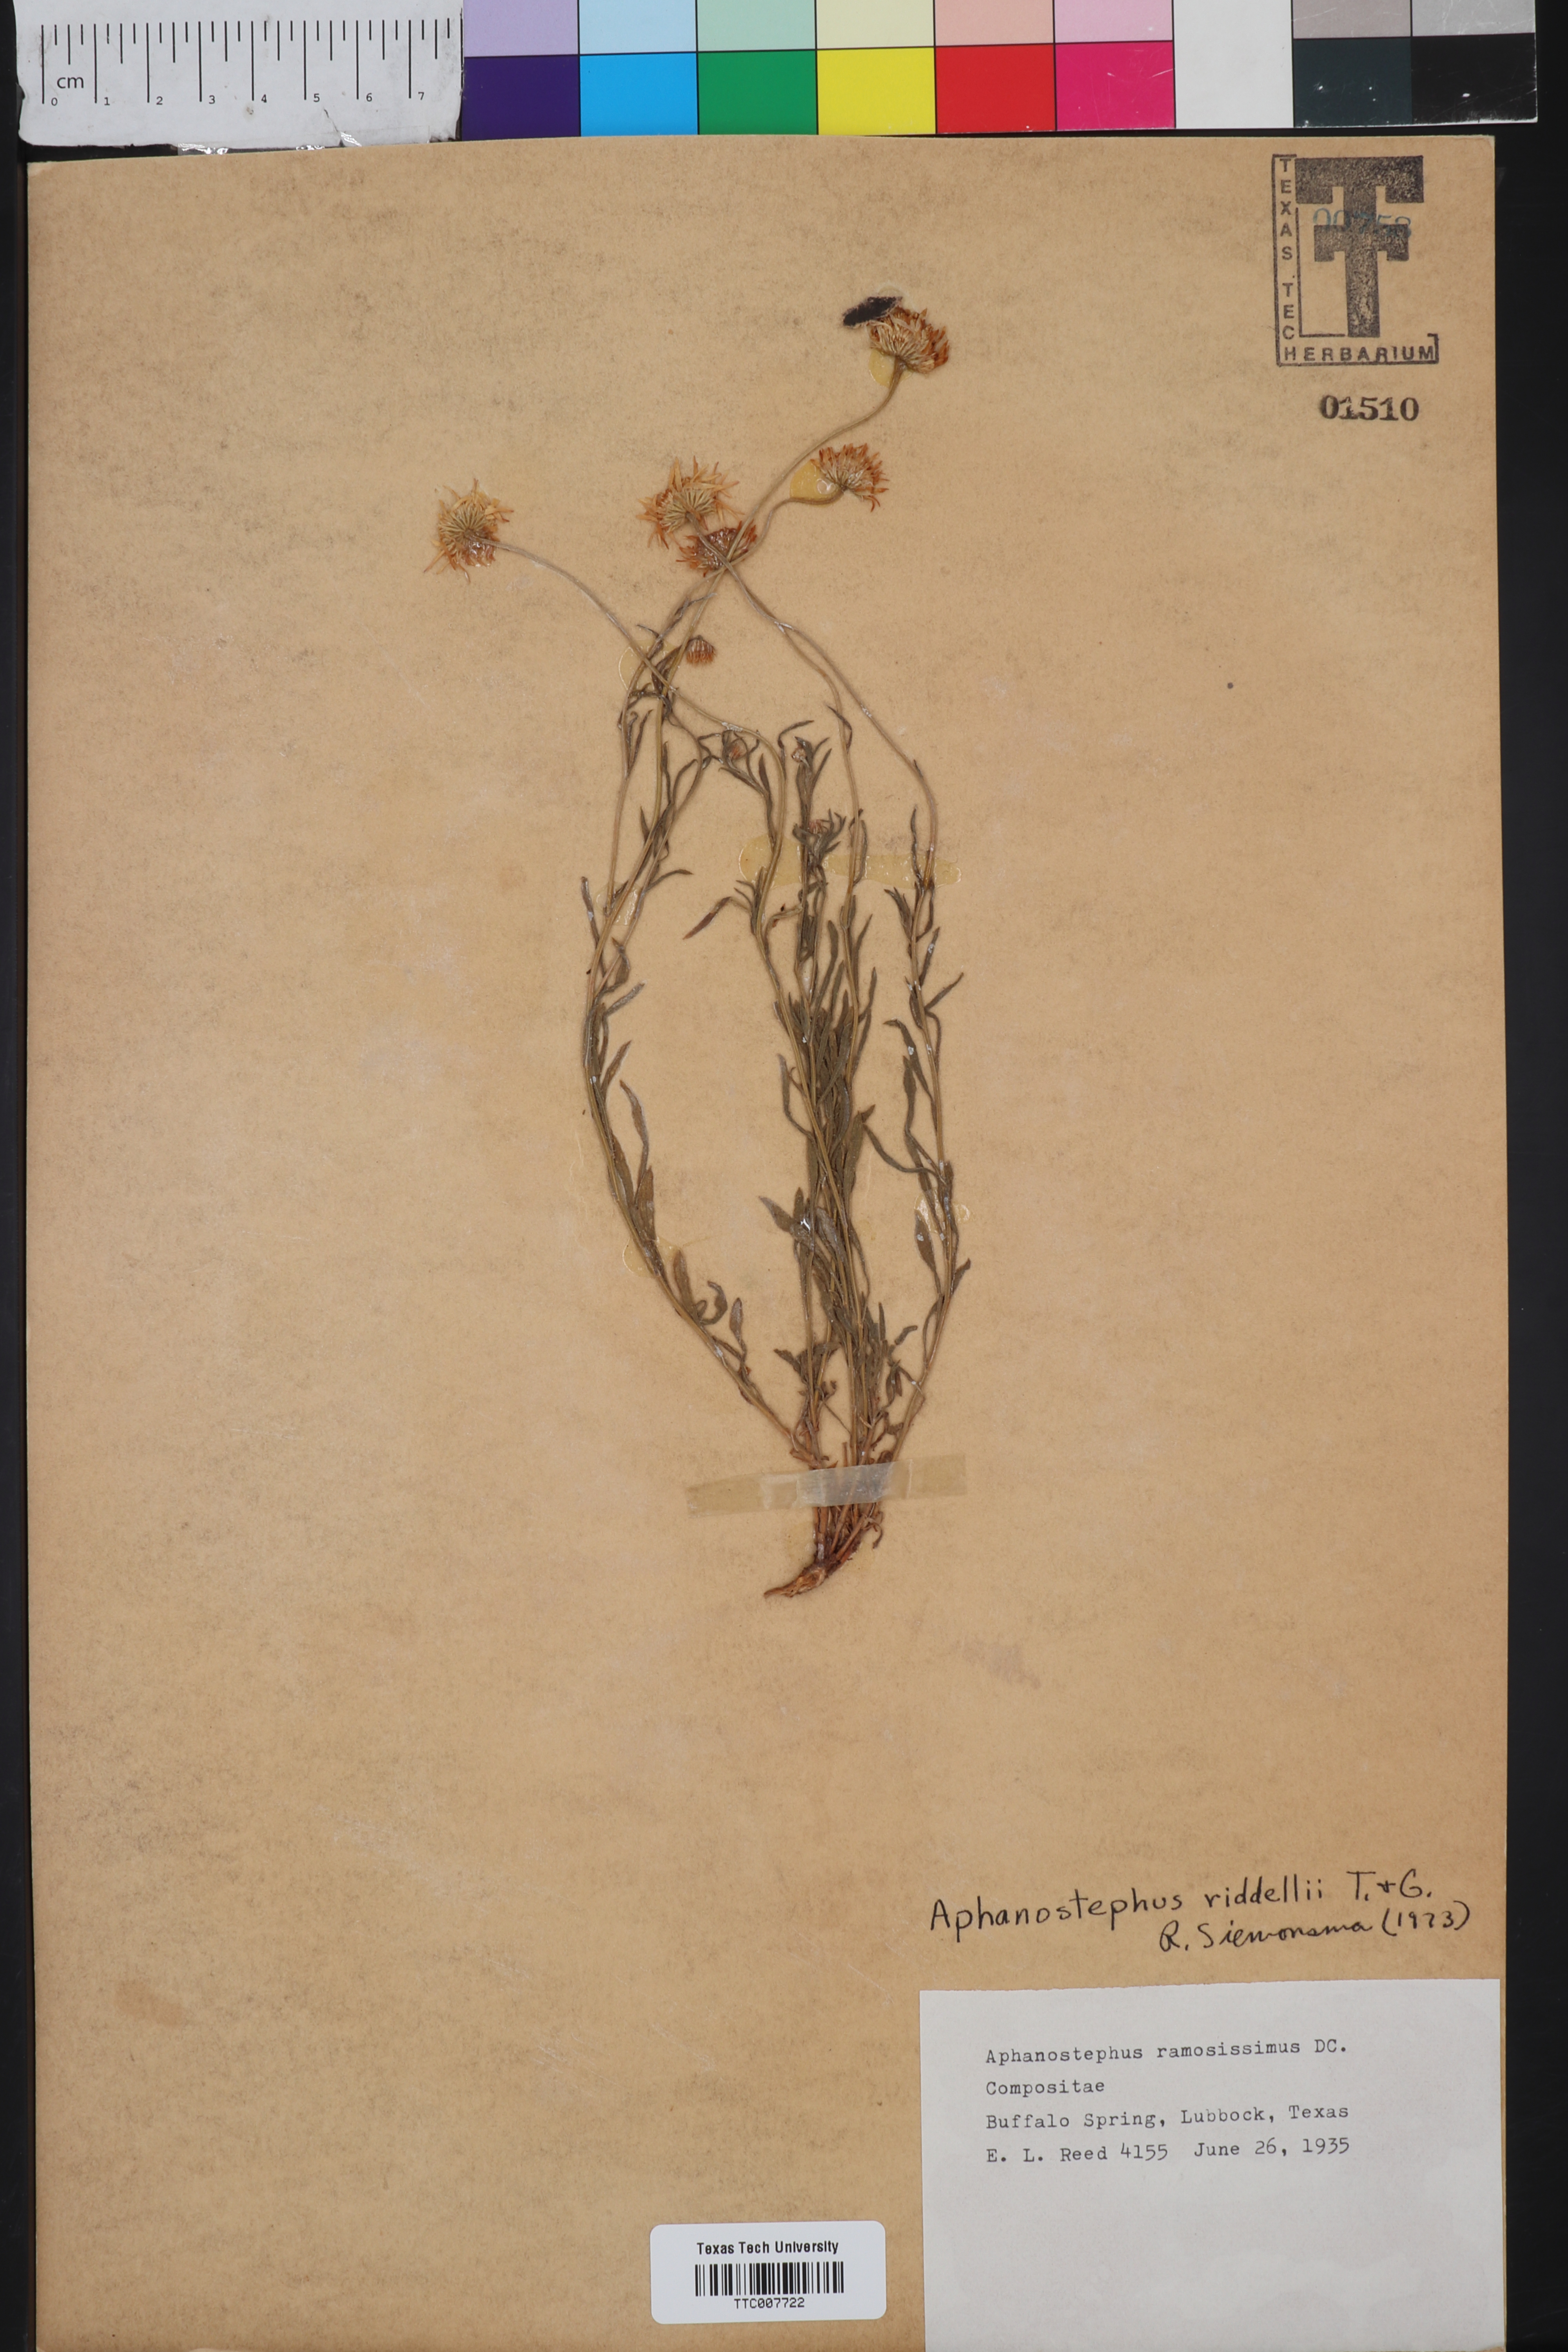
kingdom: Plantae
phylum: Tracheophyta
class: Magnoliopsida
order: Asterales
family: Asteraceae
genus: Aphanostephus
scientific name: Aphanostephus riddellii
